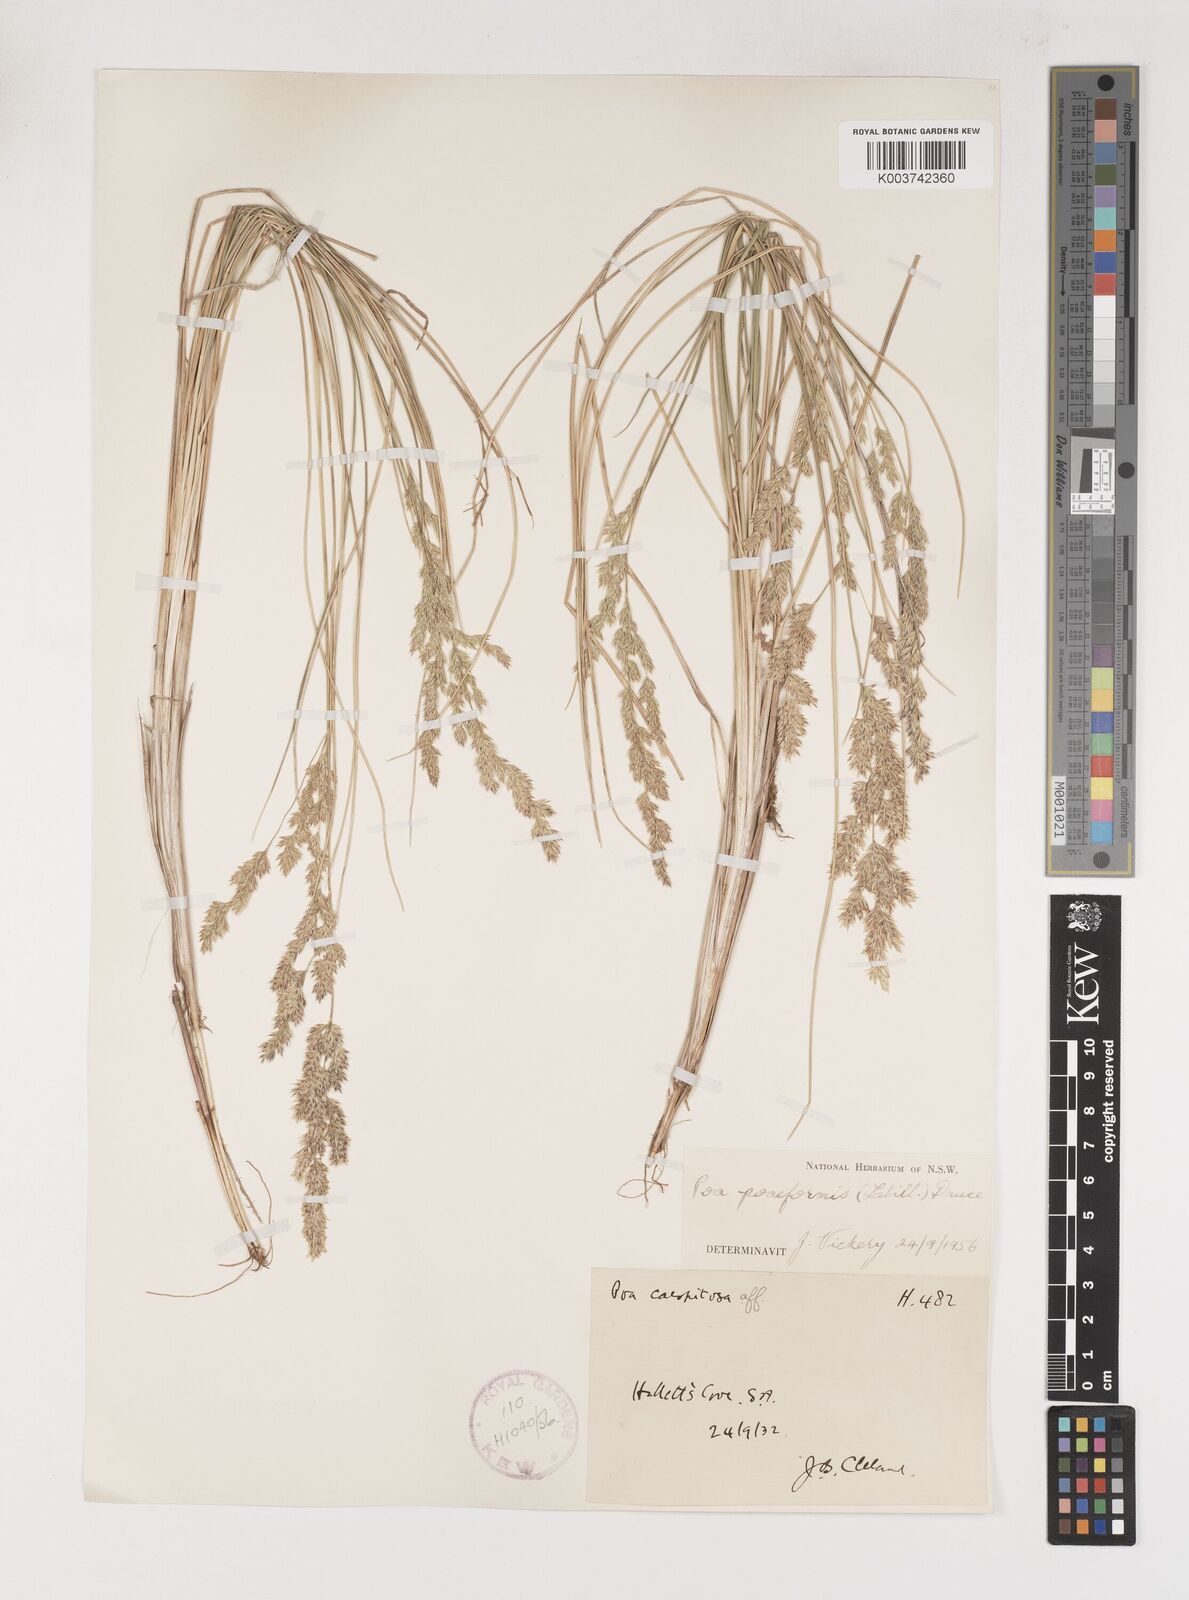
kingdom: Plantae
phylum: Tracheophyta
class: Liliopsida
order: Poales
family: Poaceae
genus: Poa
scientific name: Poa poiformis
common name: Tussock poa
